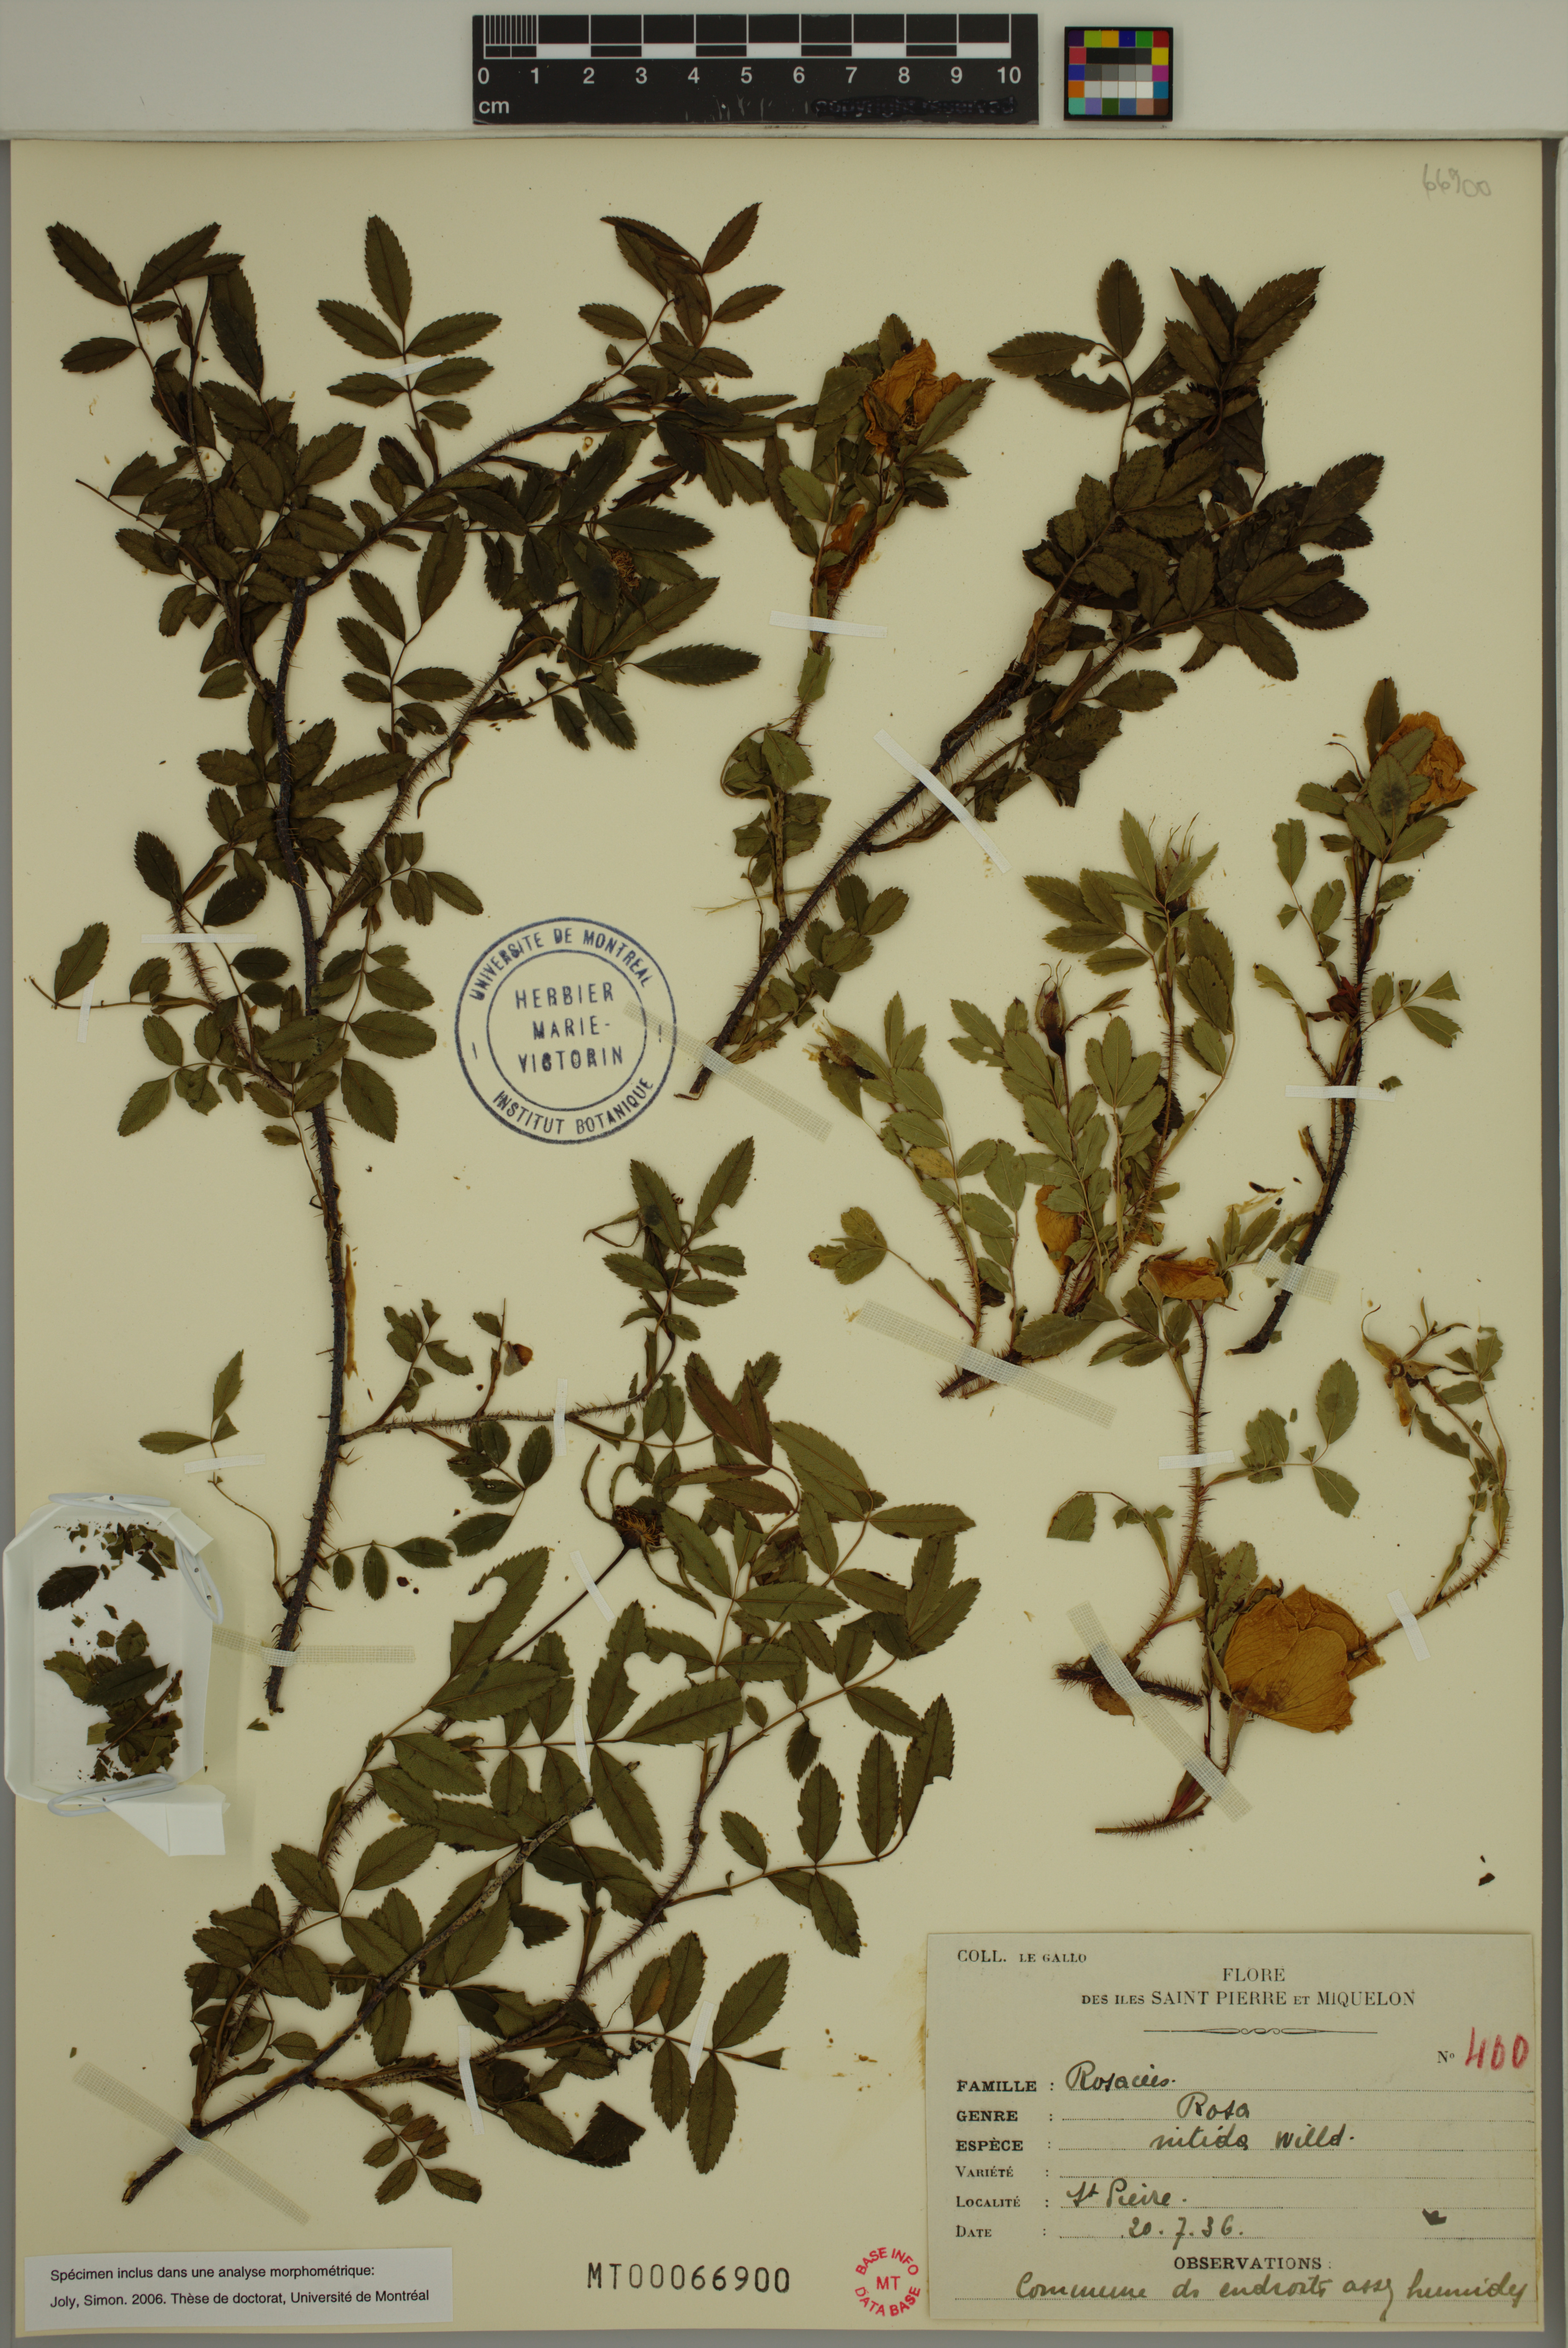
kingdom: Plantae
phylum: Tracheophyta
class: Magnoliopsida
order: Rosales
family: Rosaceae
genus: Rosa
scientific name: Rosa nitida
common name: New england rose
